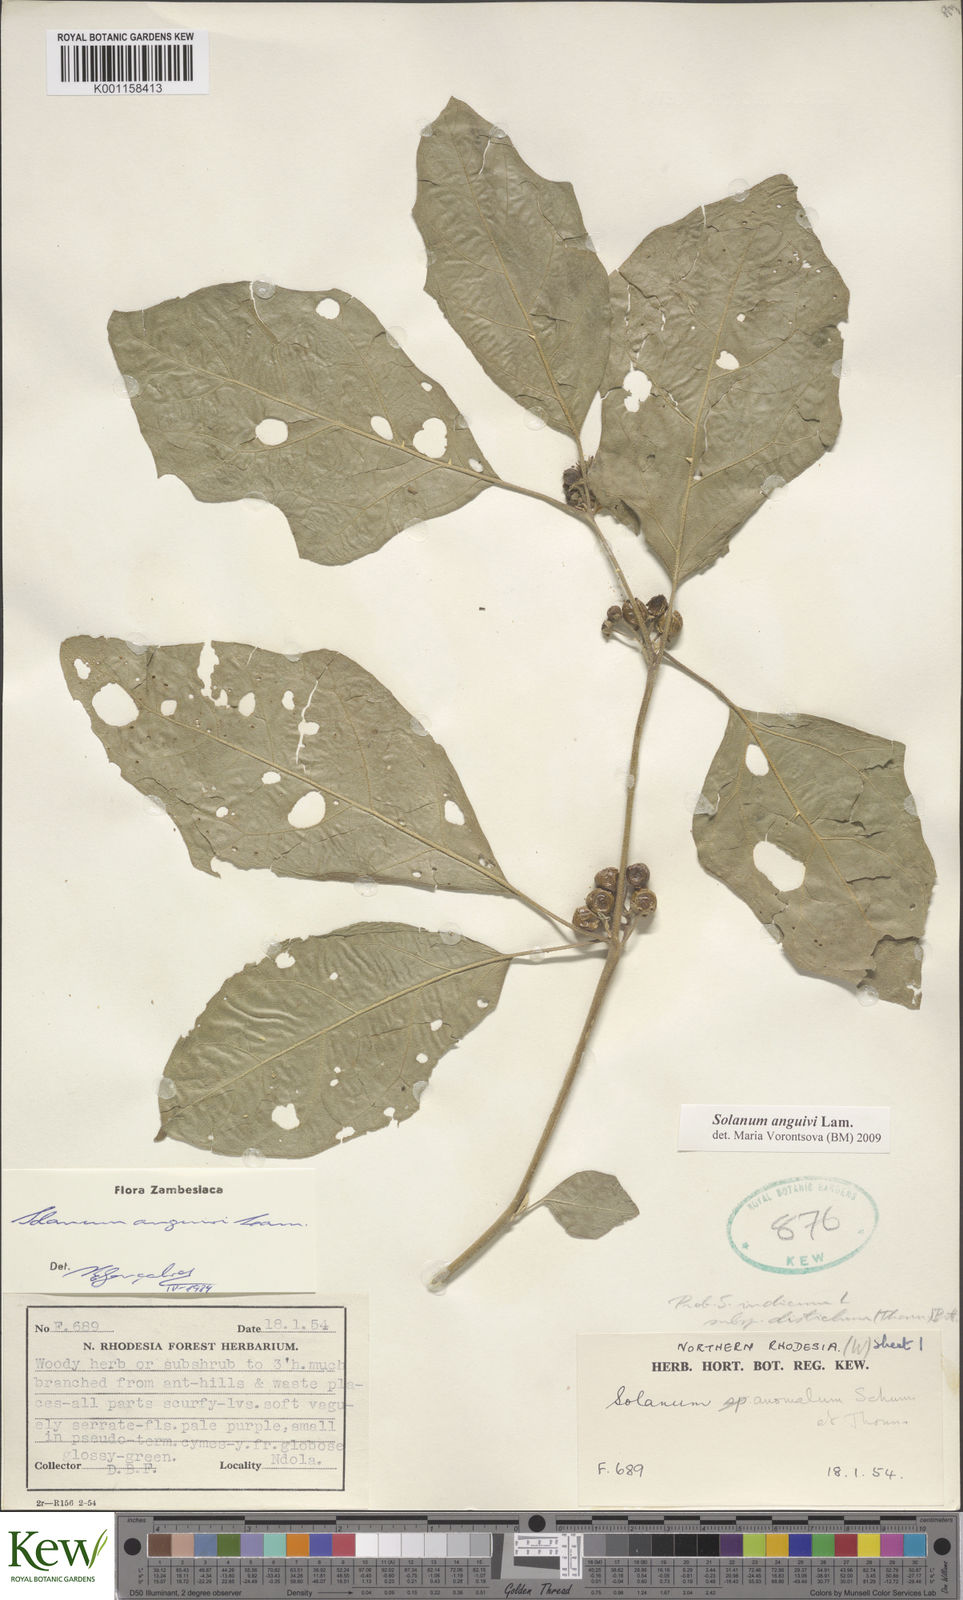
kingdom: Plantae
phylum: Tracheophyta
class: Magnoliopsida
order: Solanales
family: Solanaceae
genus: Solanum
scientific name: Solanum anguivi
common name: Forest bitterberry
